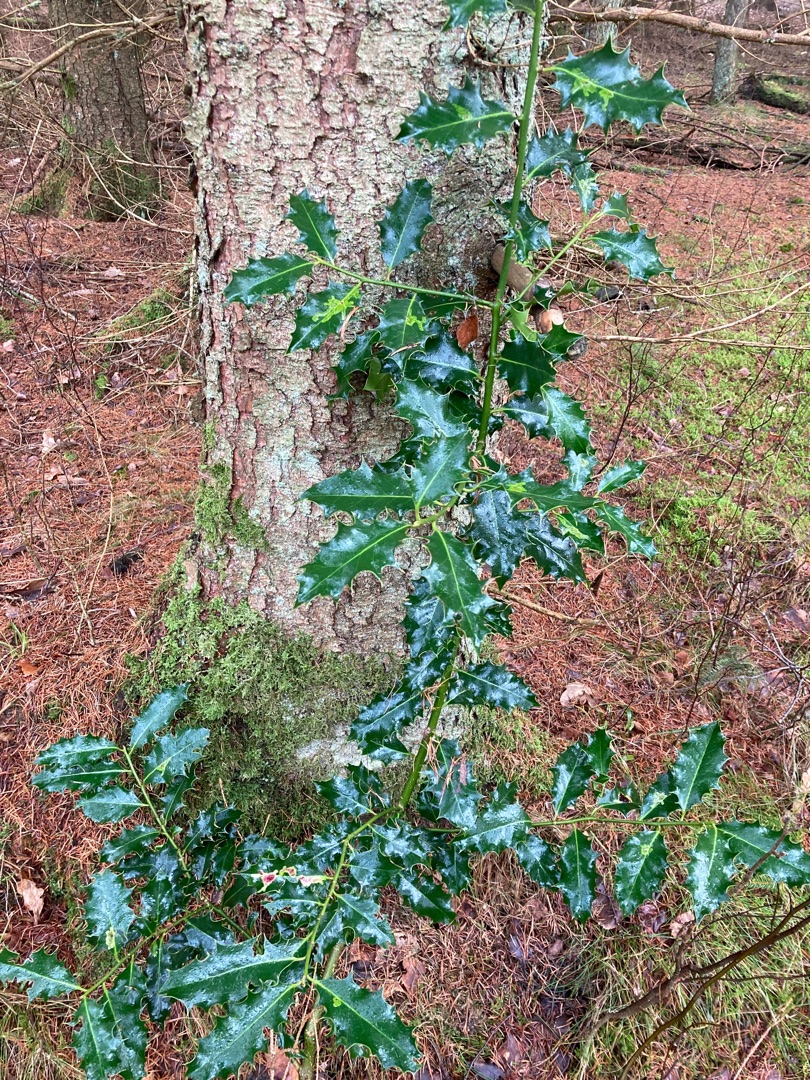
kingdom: Plantae
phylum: Tracheophyta
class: Magnoliopsida
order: Aquifoliales
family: Aquifoliaceae
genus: Ilex
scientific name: Ilex aquifolium
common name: Kristtorn
